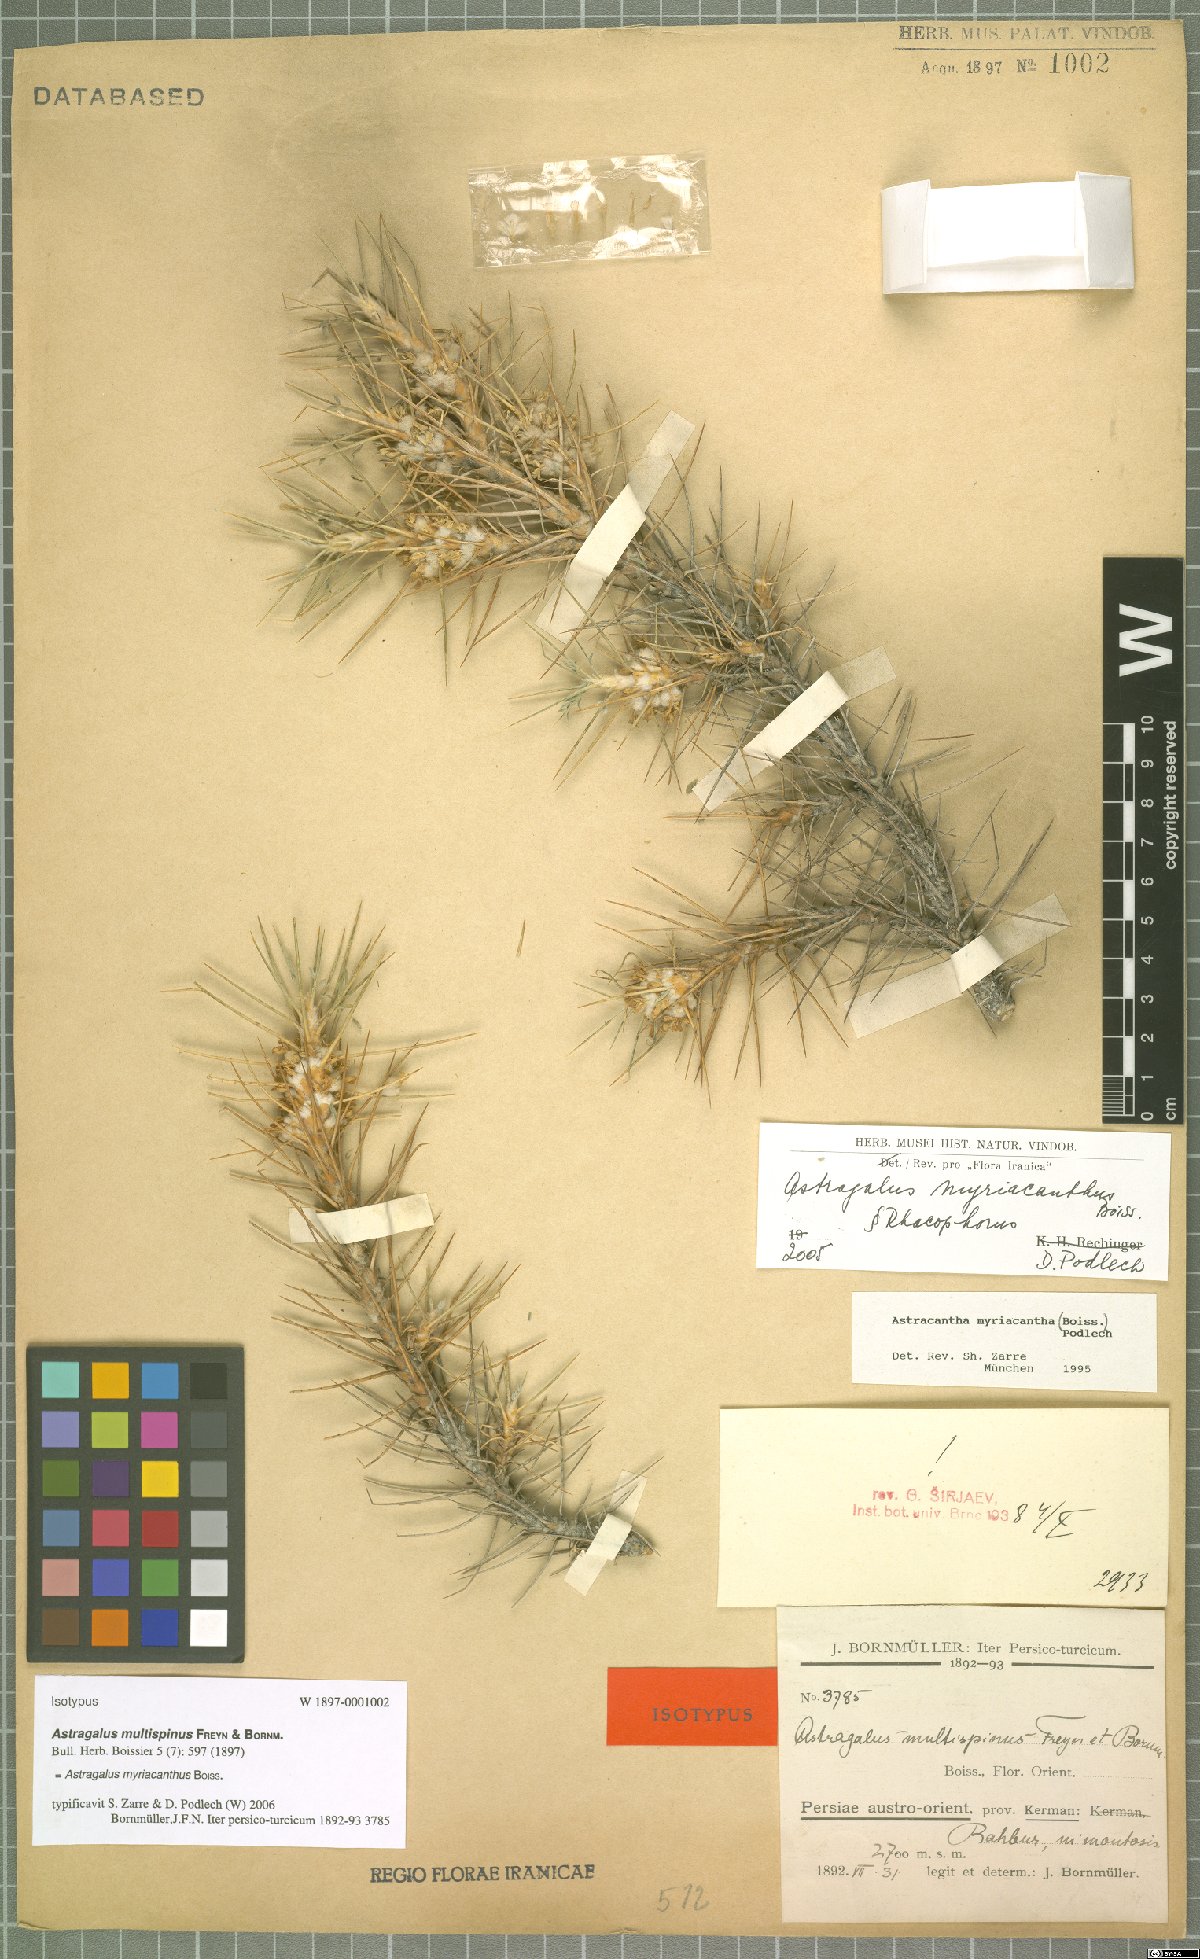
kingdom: Plantae
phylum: Tracheophyta
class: Magnoliopsida
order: Fabales
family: Fabaceae
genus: Astragalus
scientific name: Astragalus myriacanthus
